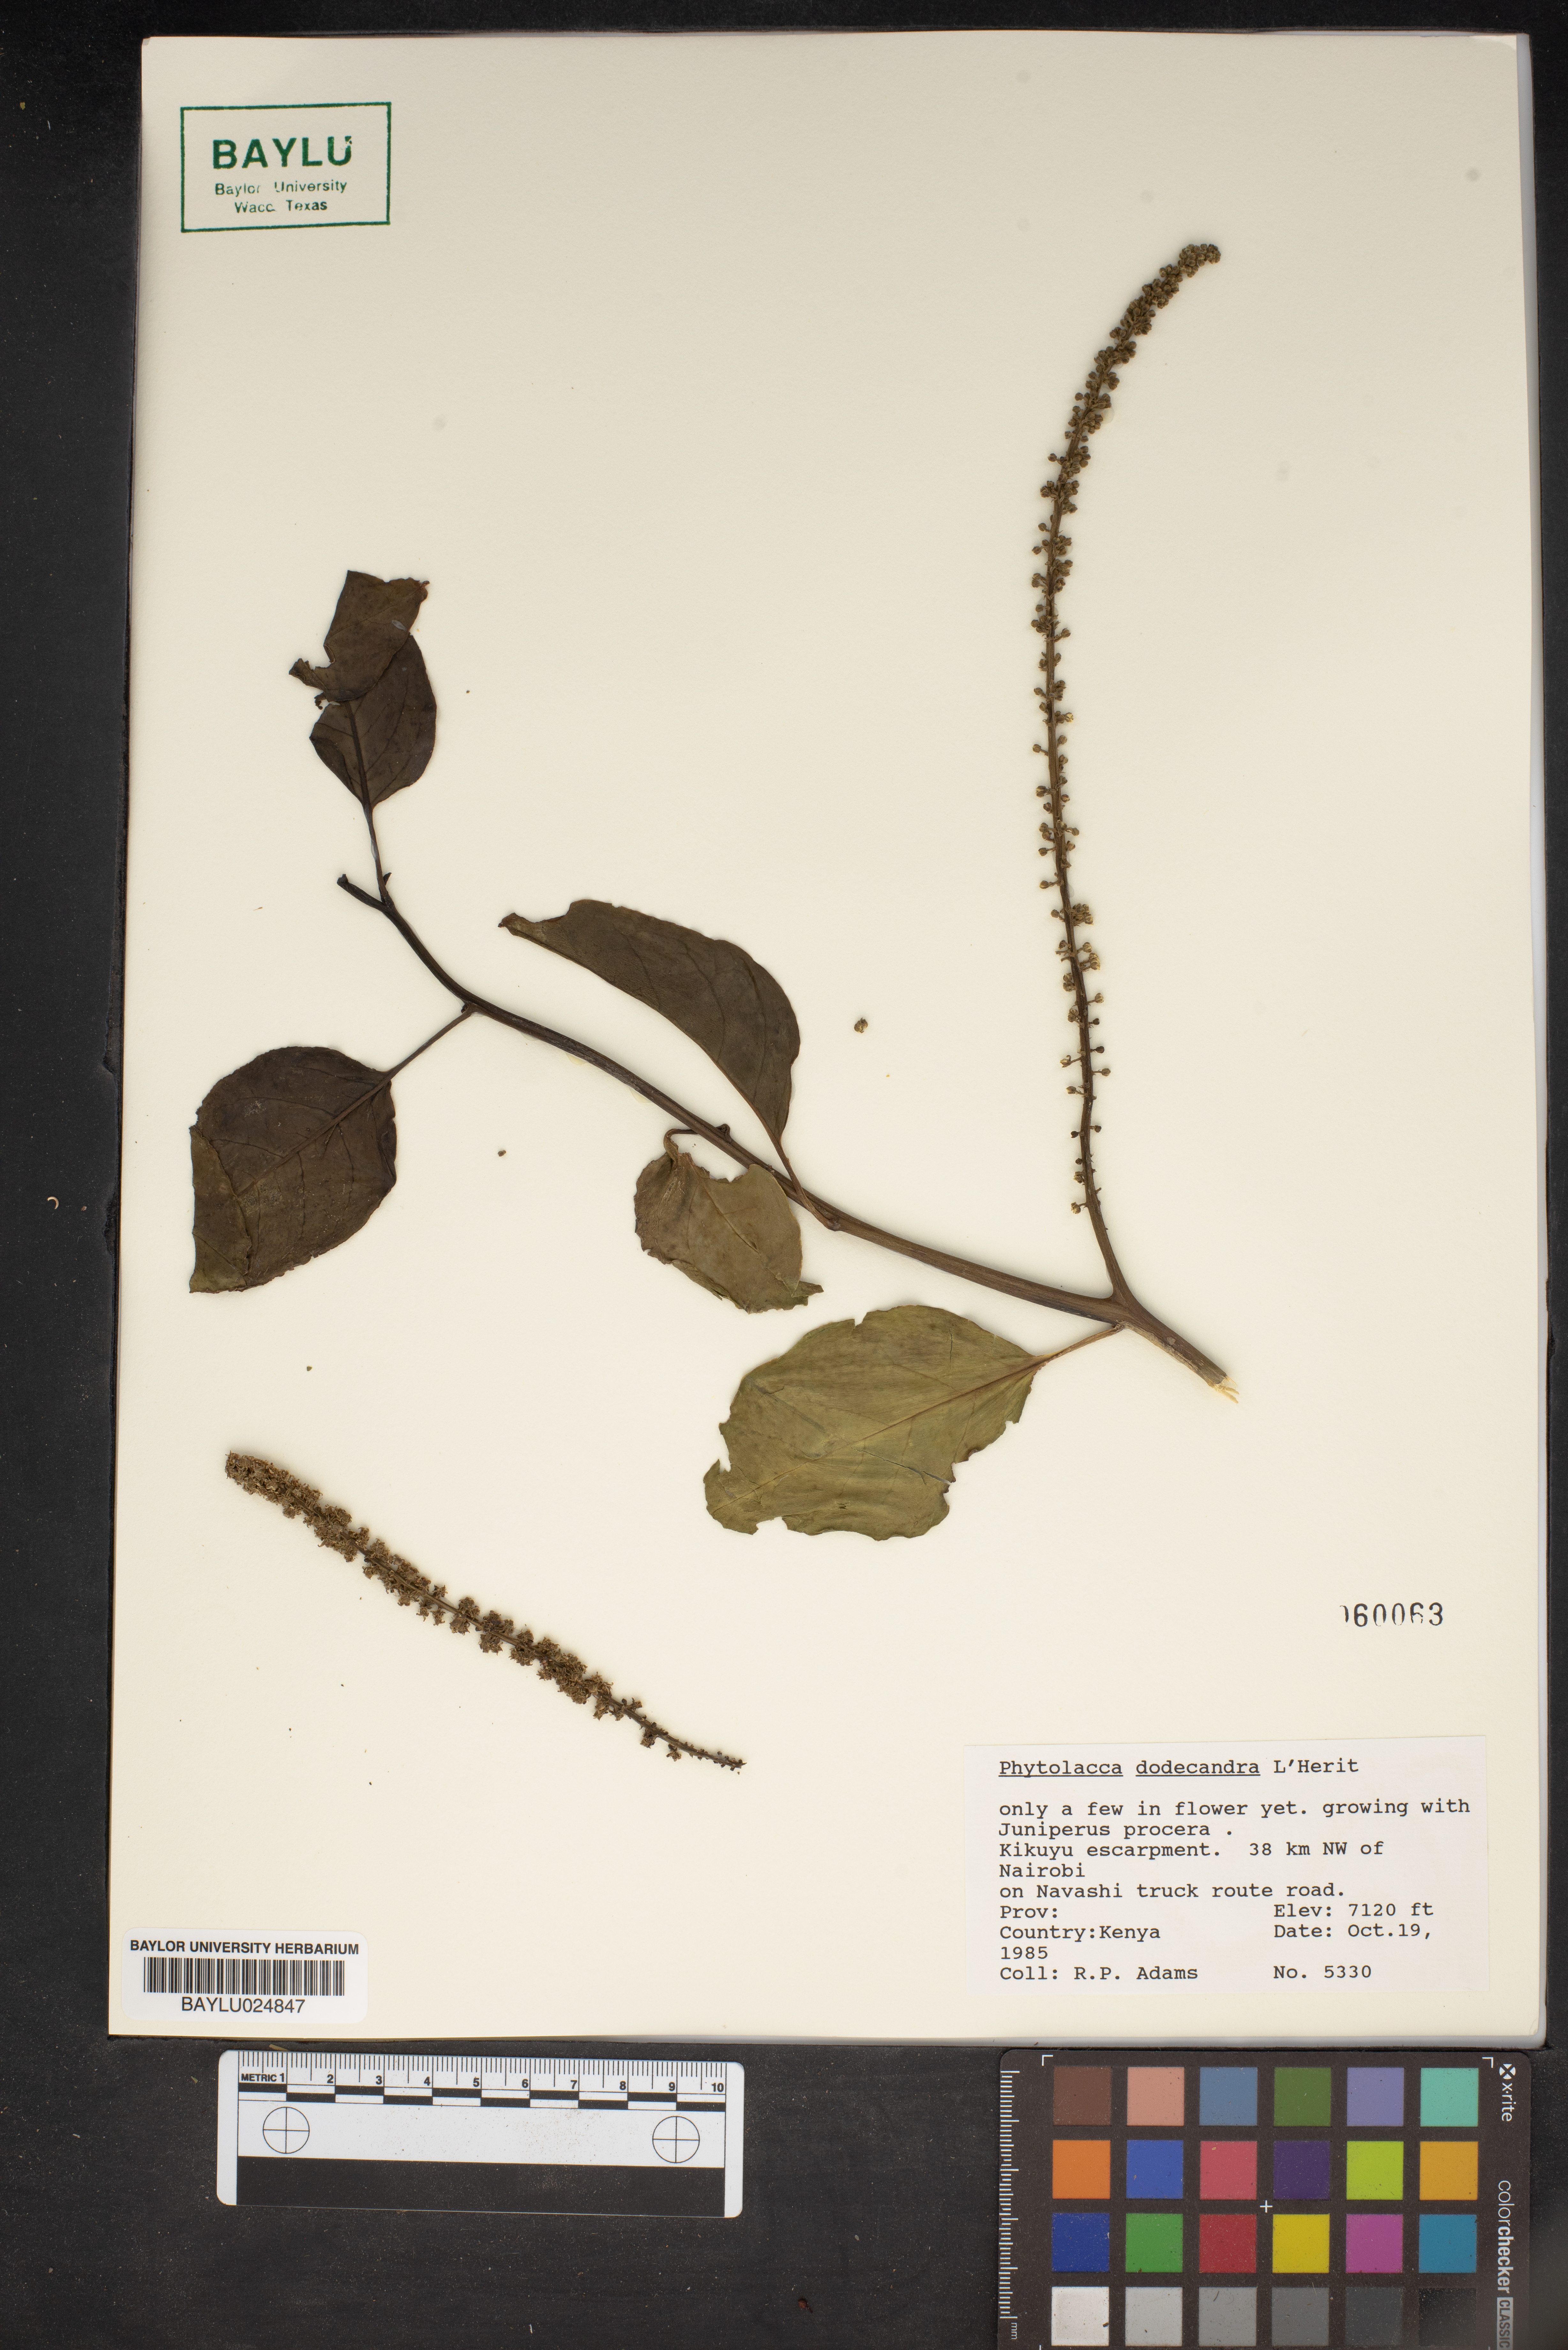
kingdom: Plantae
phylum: Tracheophyta
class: Magnoliopsida
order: Caryophyllales
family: Phytolaccaceae
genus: Phytolacca
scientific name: Phytolacca dodecandra
